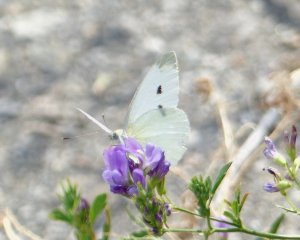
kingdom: Animalia
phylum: Arthropoda
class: Insecta
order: Lepidoptera
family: Pieridae
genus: Pieris
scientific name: Pieris rapae
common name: Cabbage White
